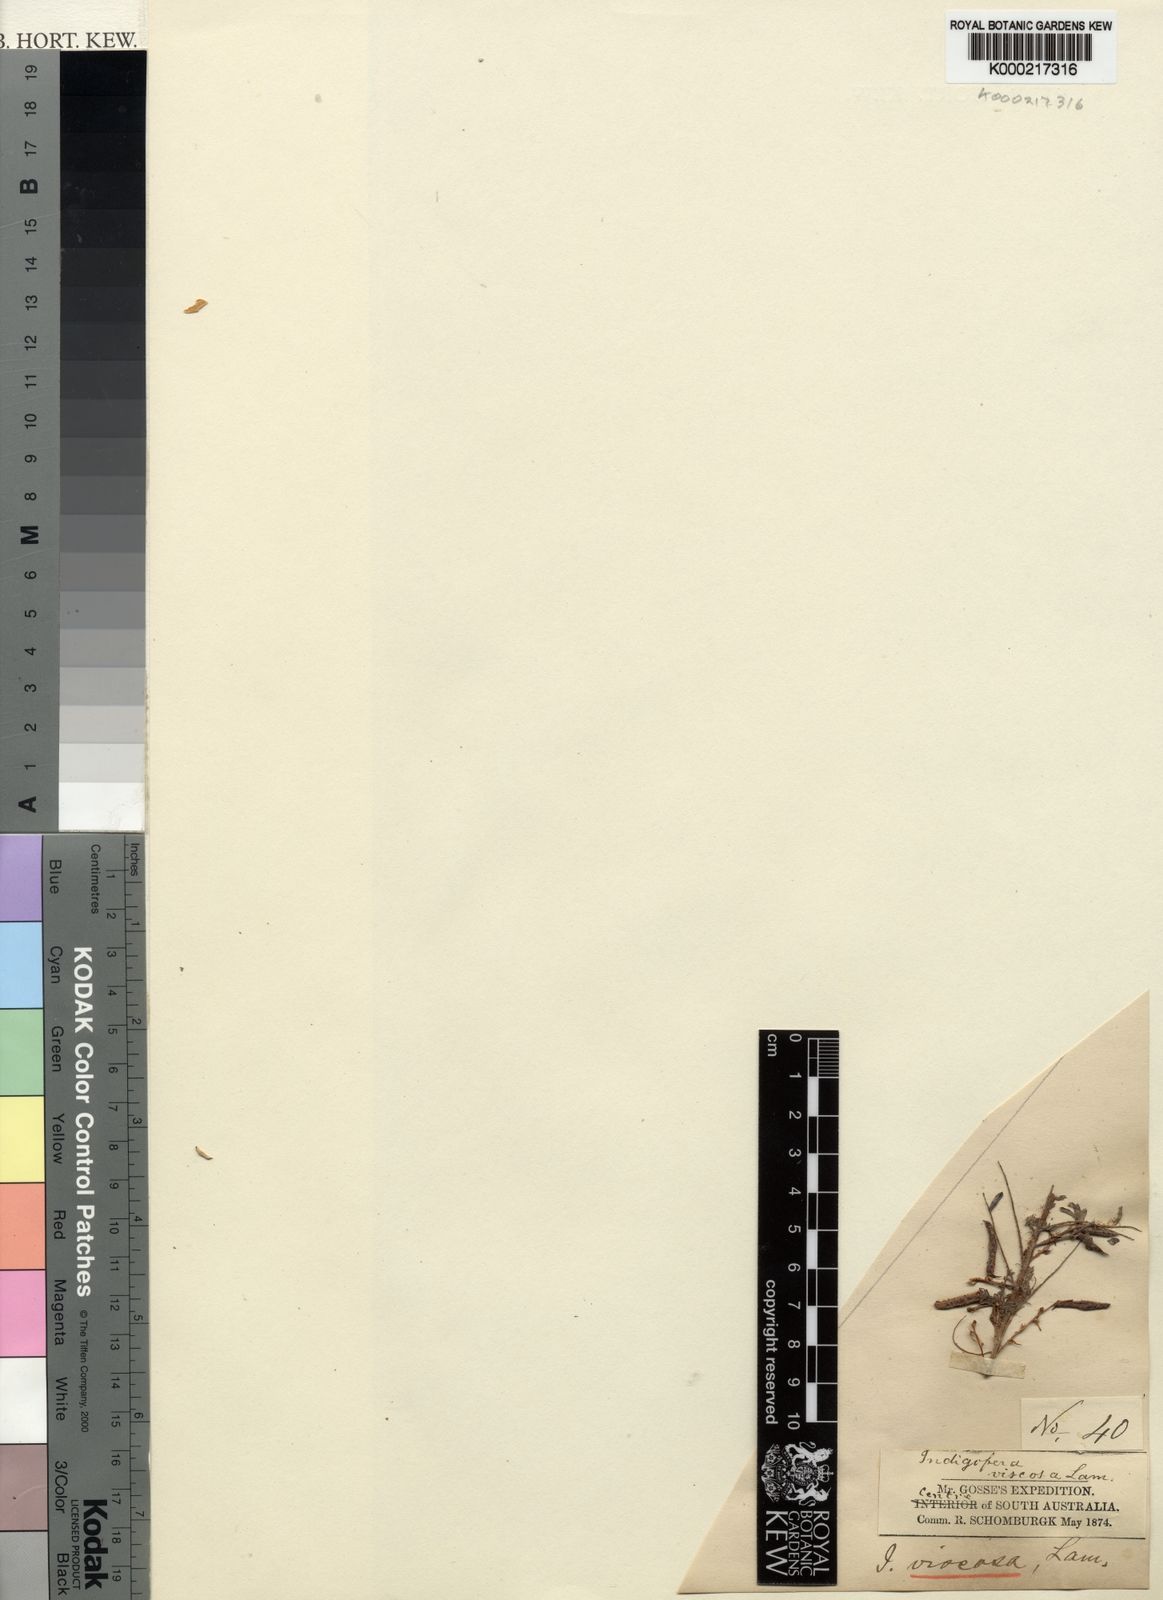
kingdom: Plantae
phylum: Tracheophyta
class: Magnoliopsida
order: Fabales
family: Fabaceae
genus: Indigofera
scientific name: Indigofera colutea
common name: Rusty indigo
